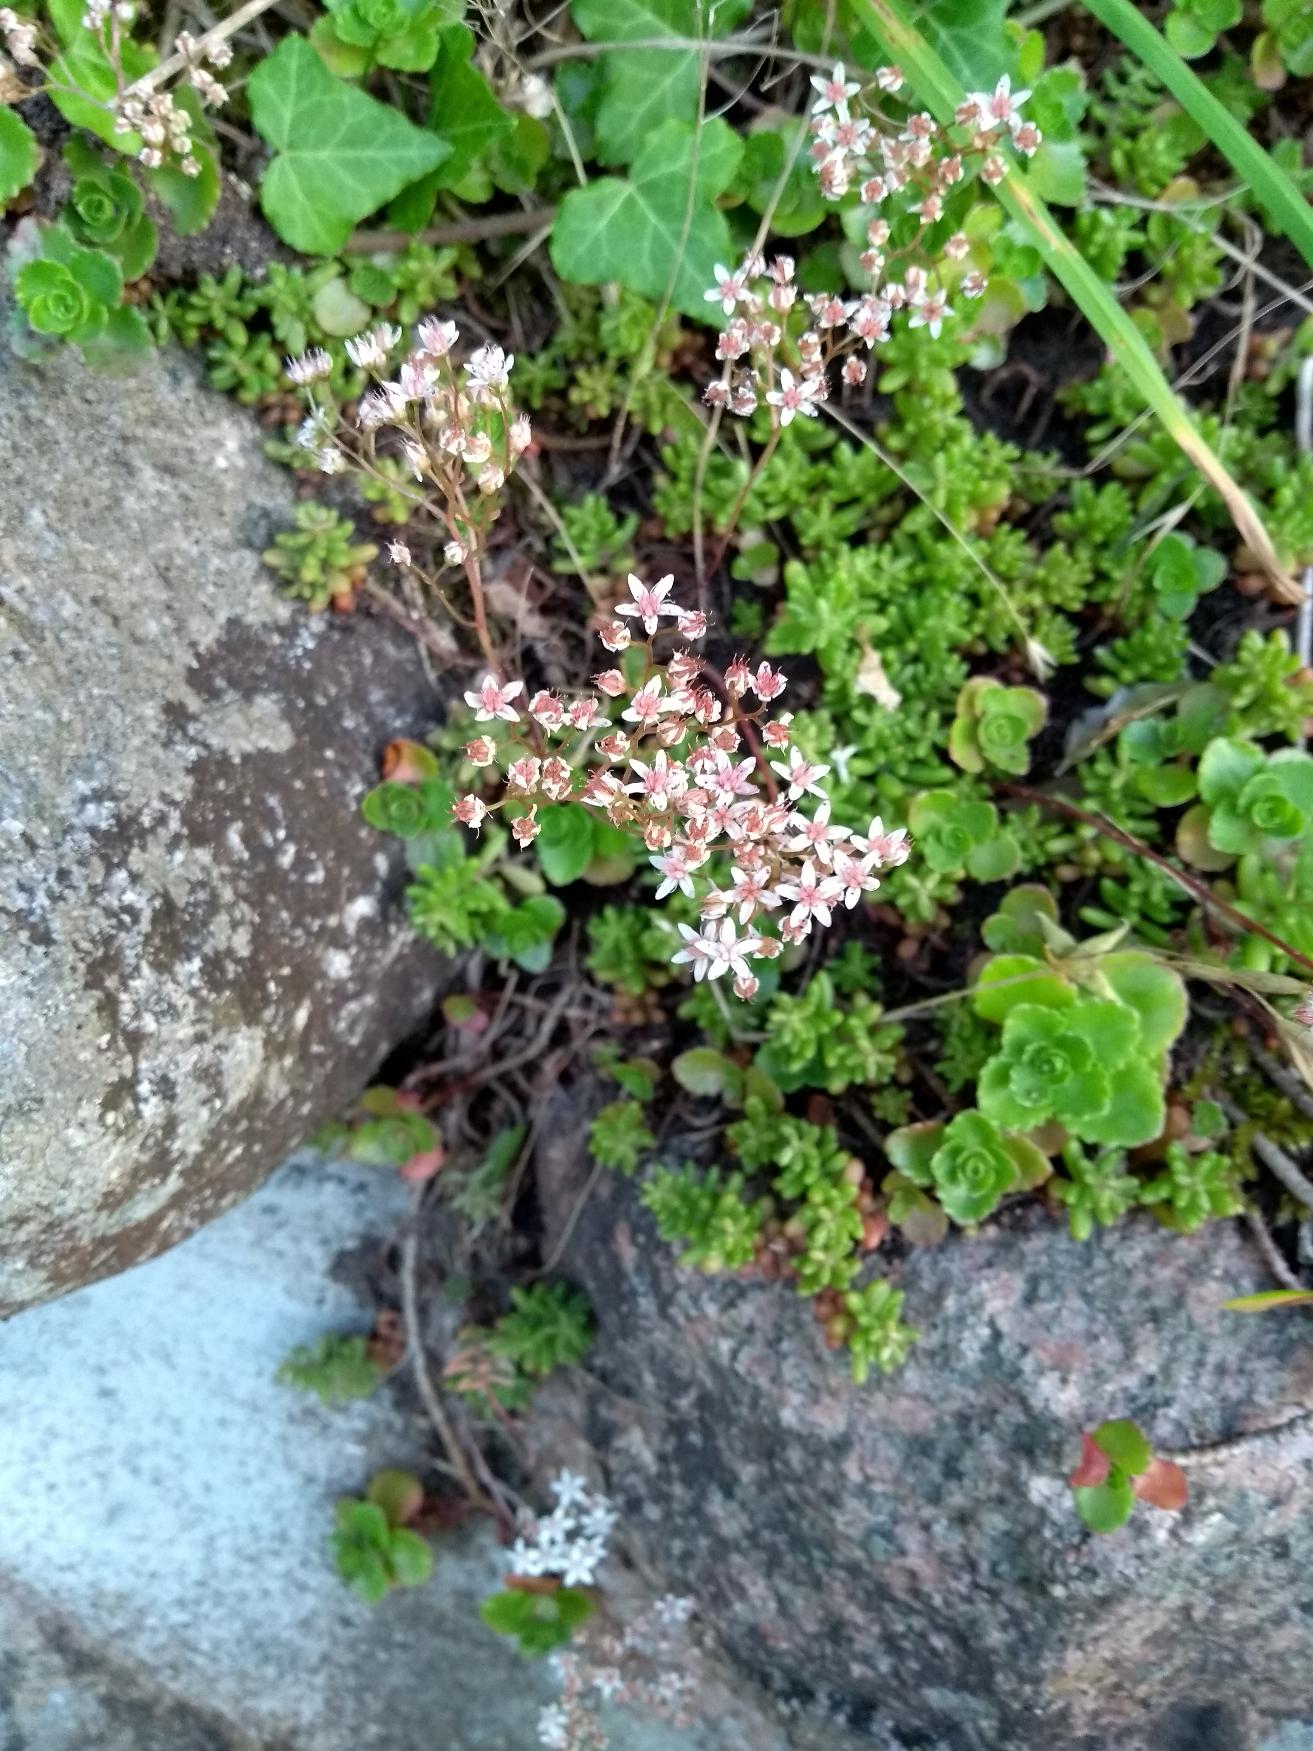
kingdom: Plantae
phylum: Tracheophyta
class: Magnoliopsida
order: Saxifragales
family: Crassulaceae
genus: Sedum
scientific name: Sedum album
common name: Hvid stenurt
